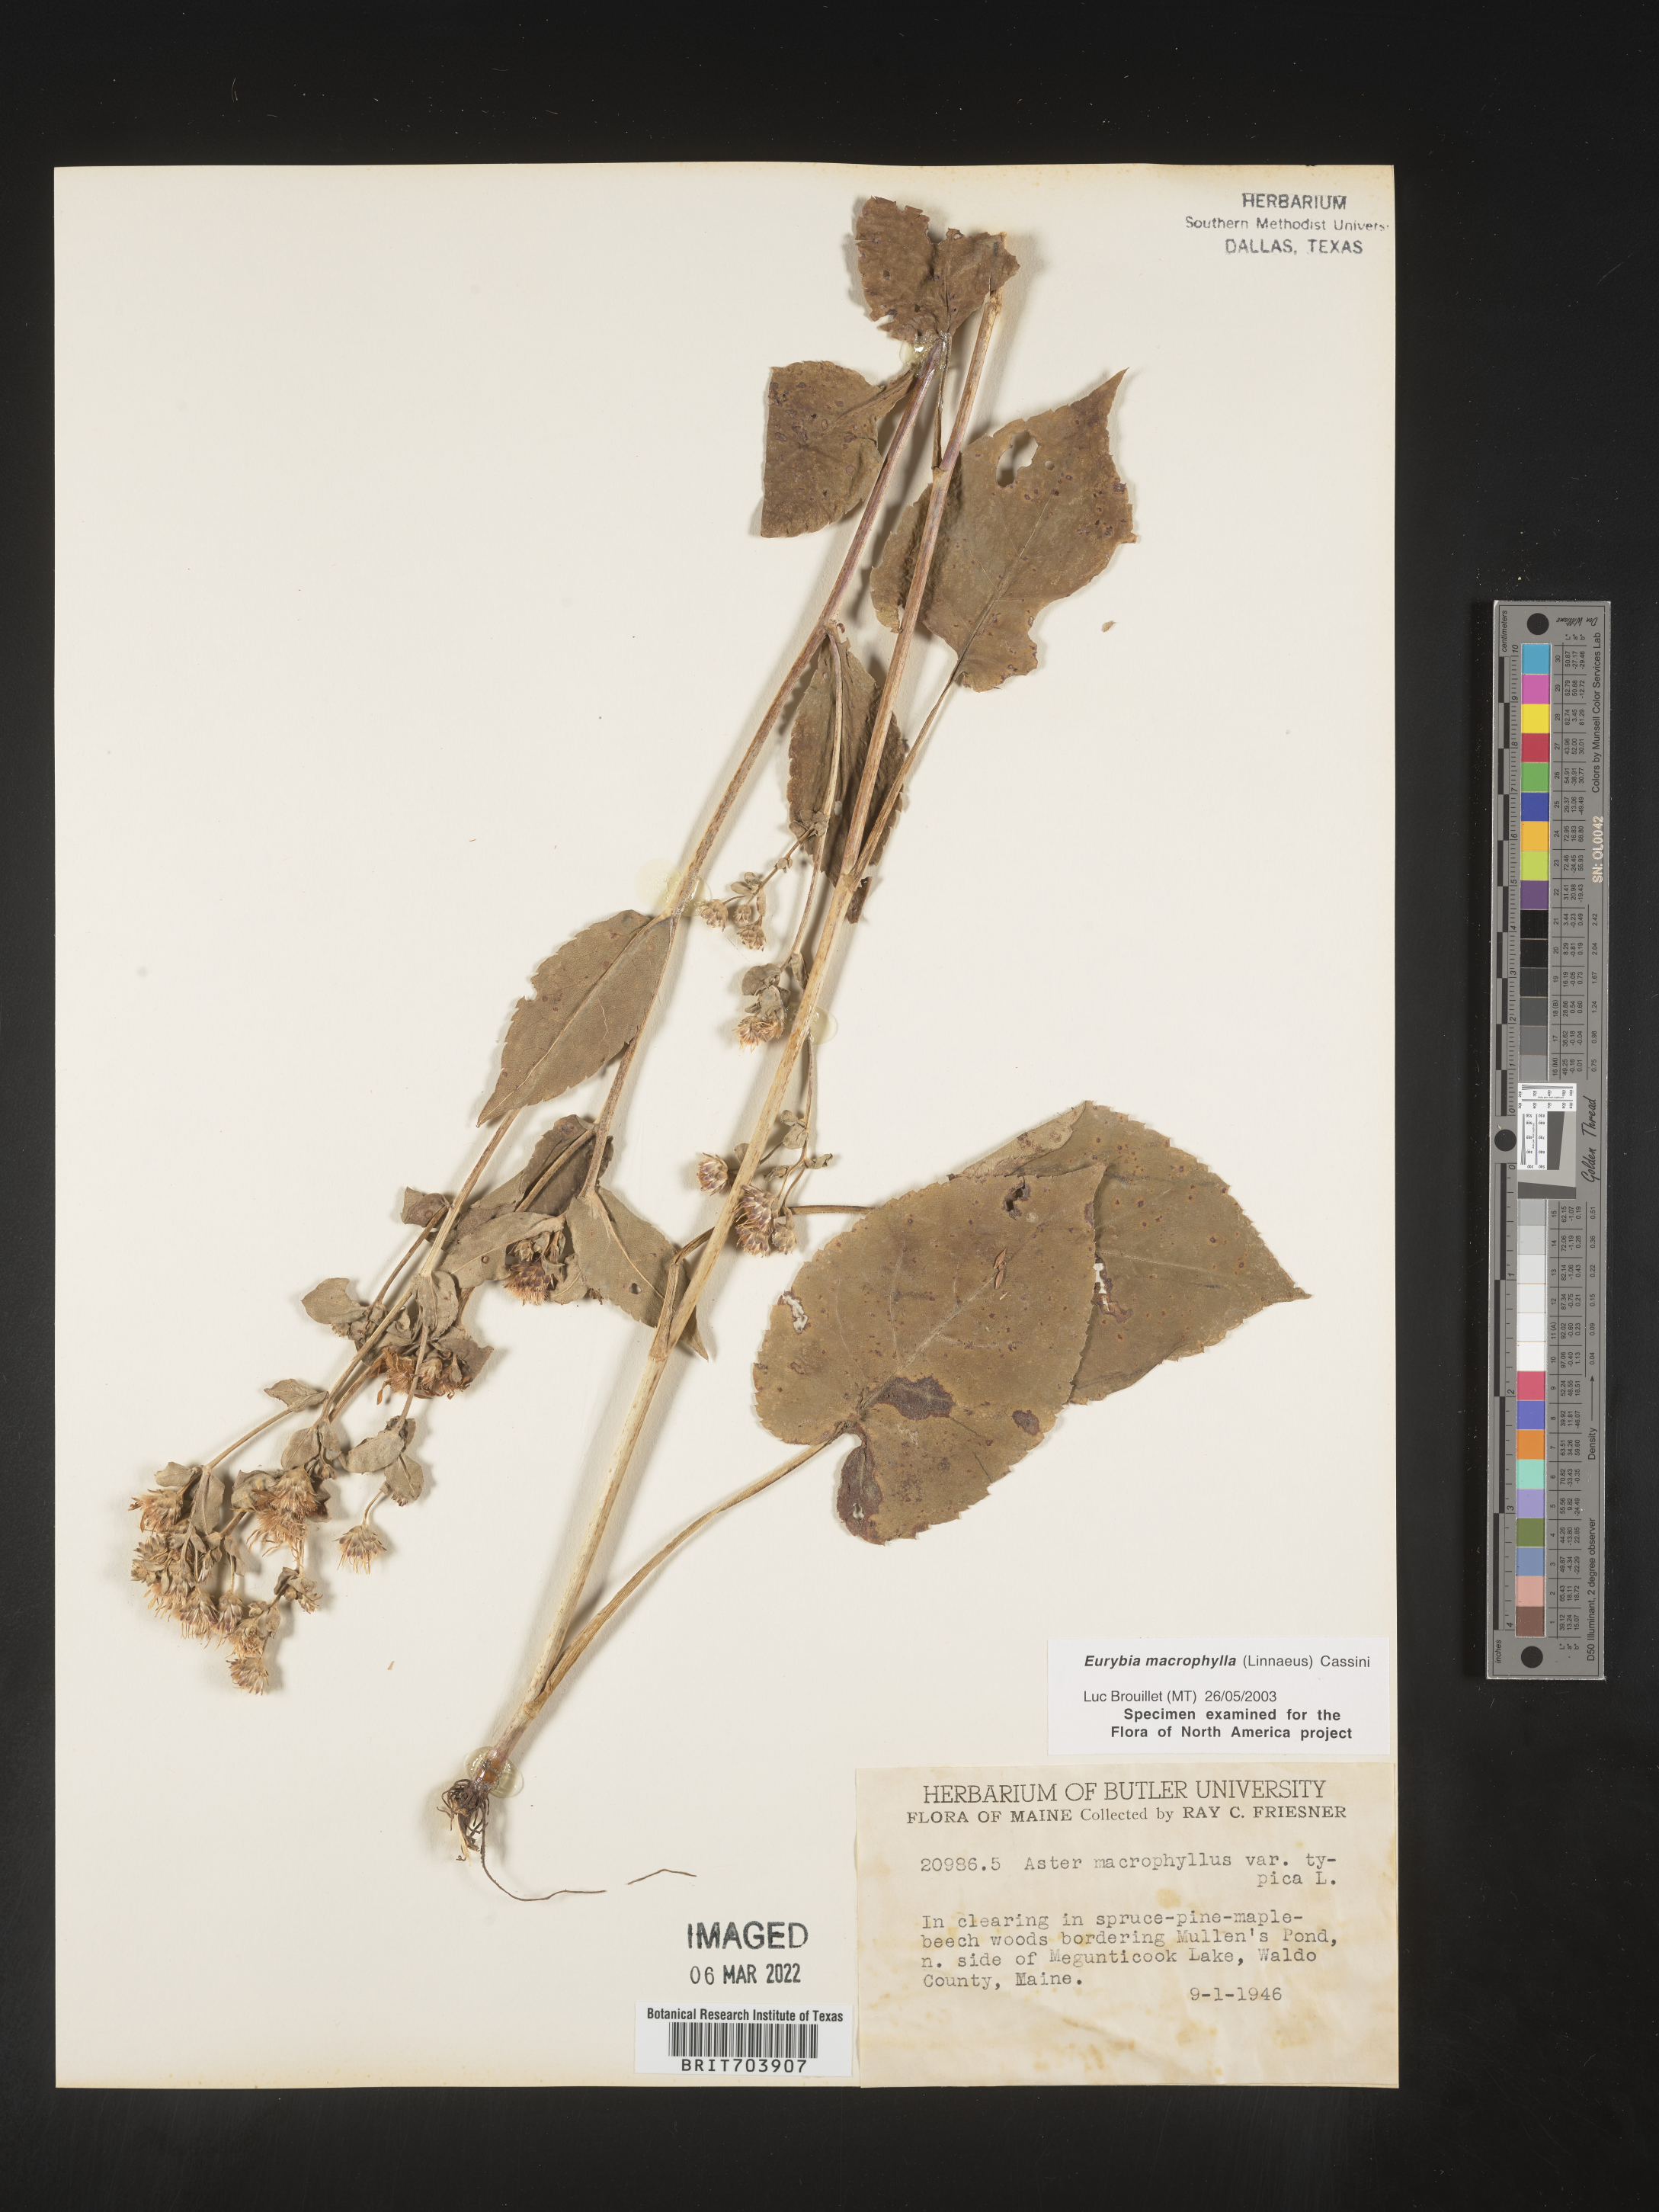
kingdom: Plantae
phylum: Tracheophyta
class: Magnoliopsida
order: Asterales
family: Asteraceae
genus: Eurybia
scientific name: Eurybia macrophylla
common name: Big-leaved aster
